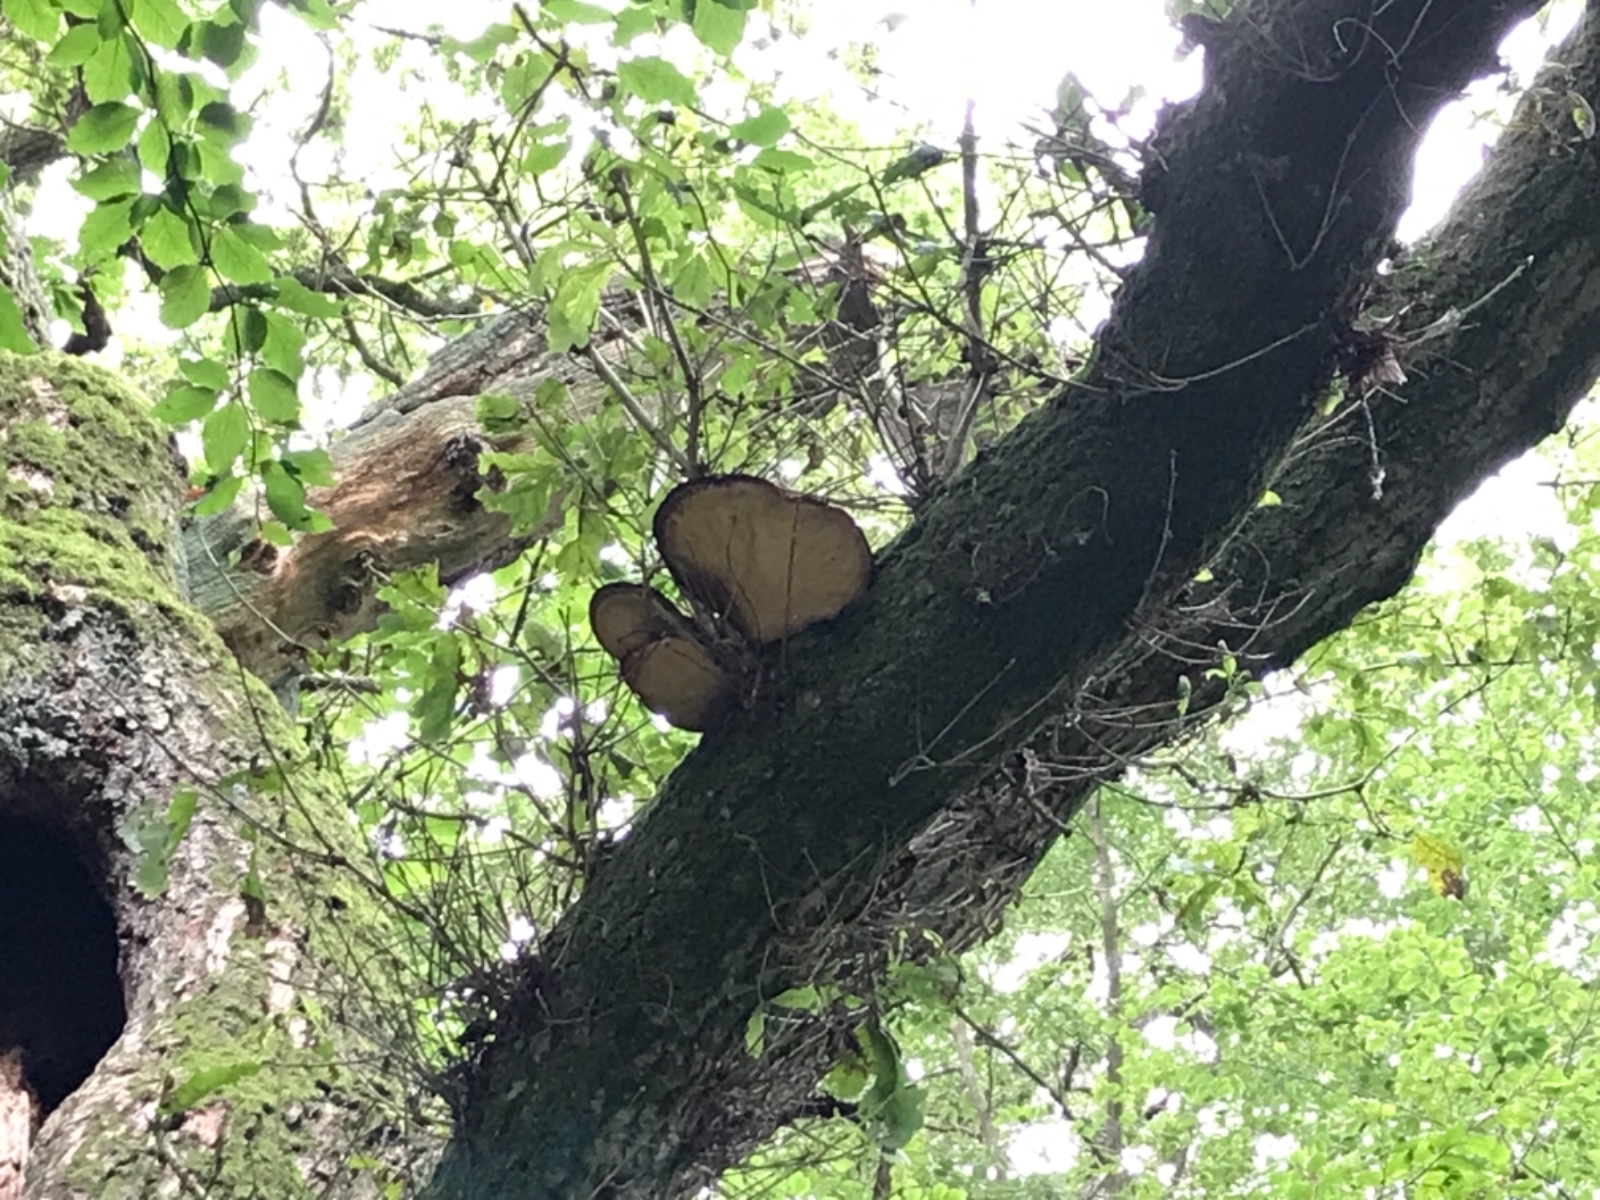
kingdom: Fungi
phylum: Basidiomycota
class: Agaricomycetes
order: Agaricales
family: Fistulinaceae
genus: Fistulina
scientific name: Fistulina hepatica
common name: oksetunge
